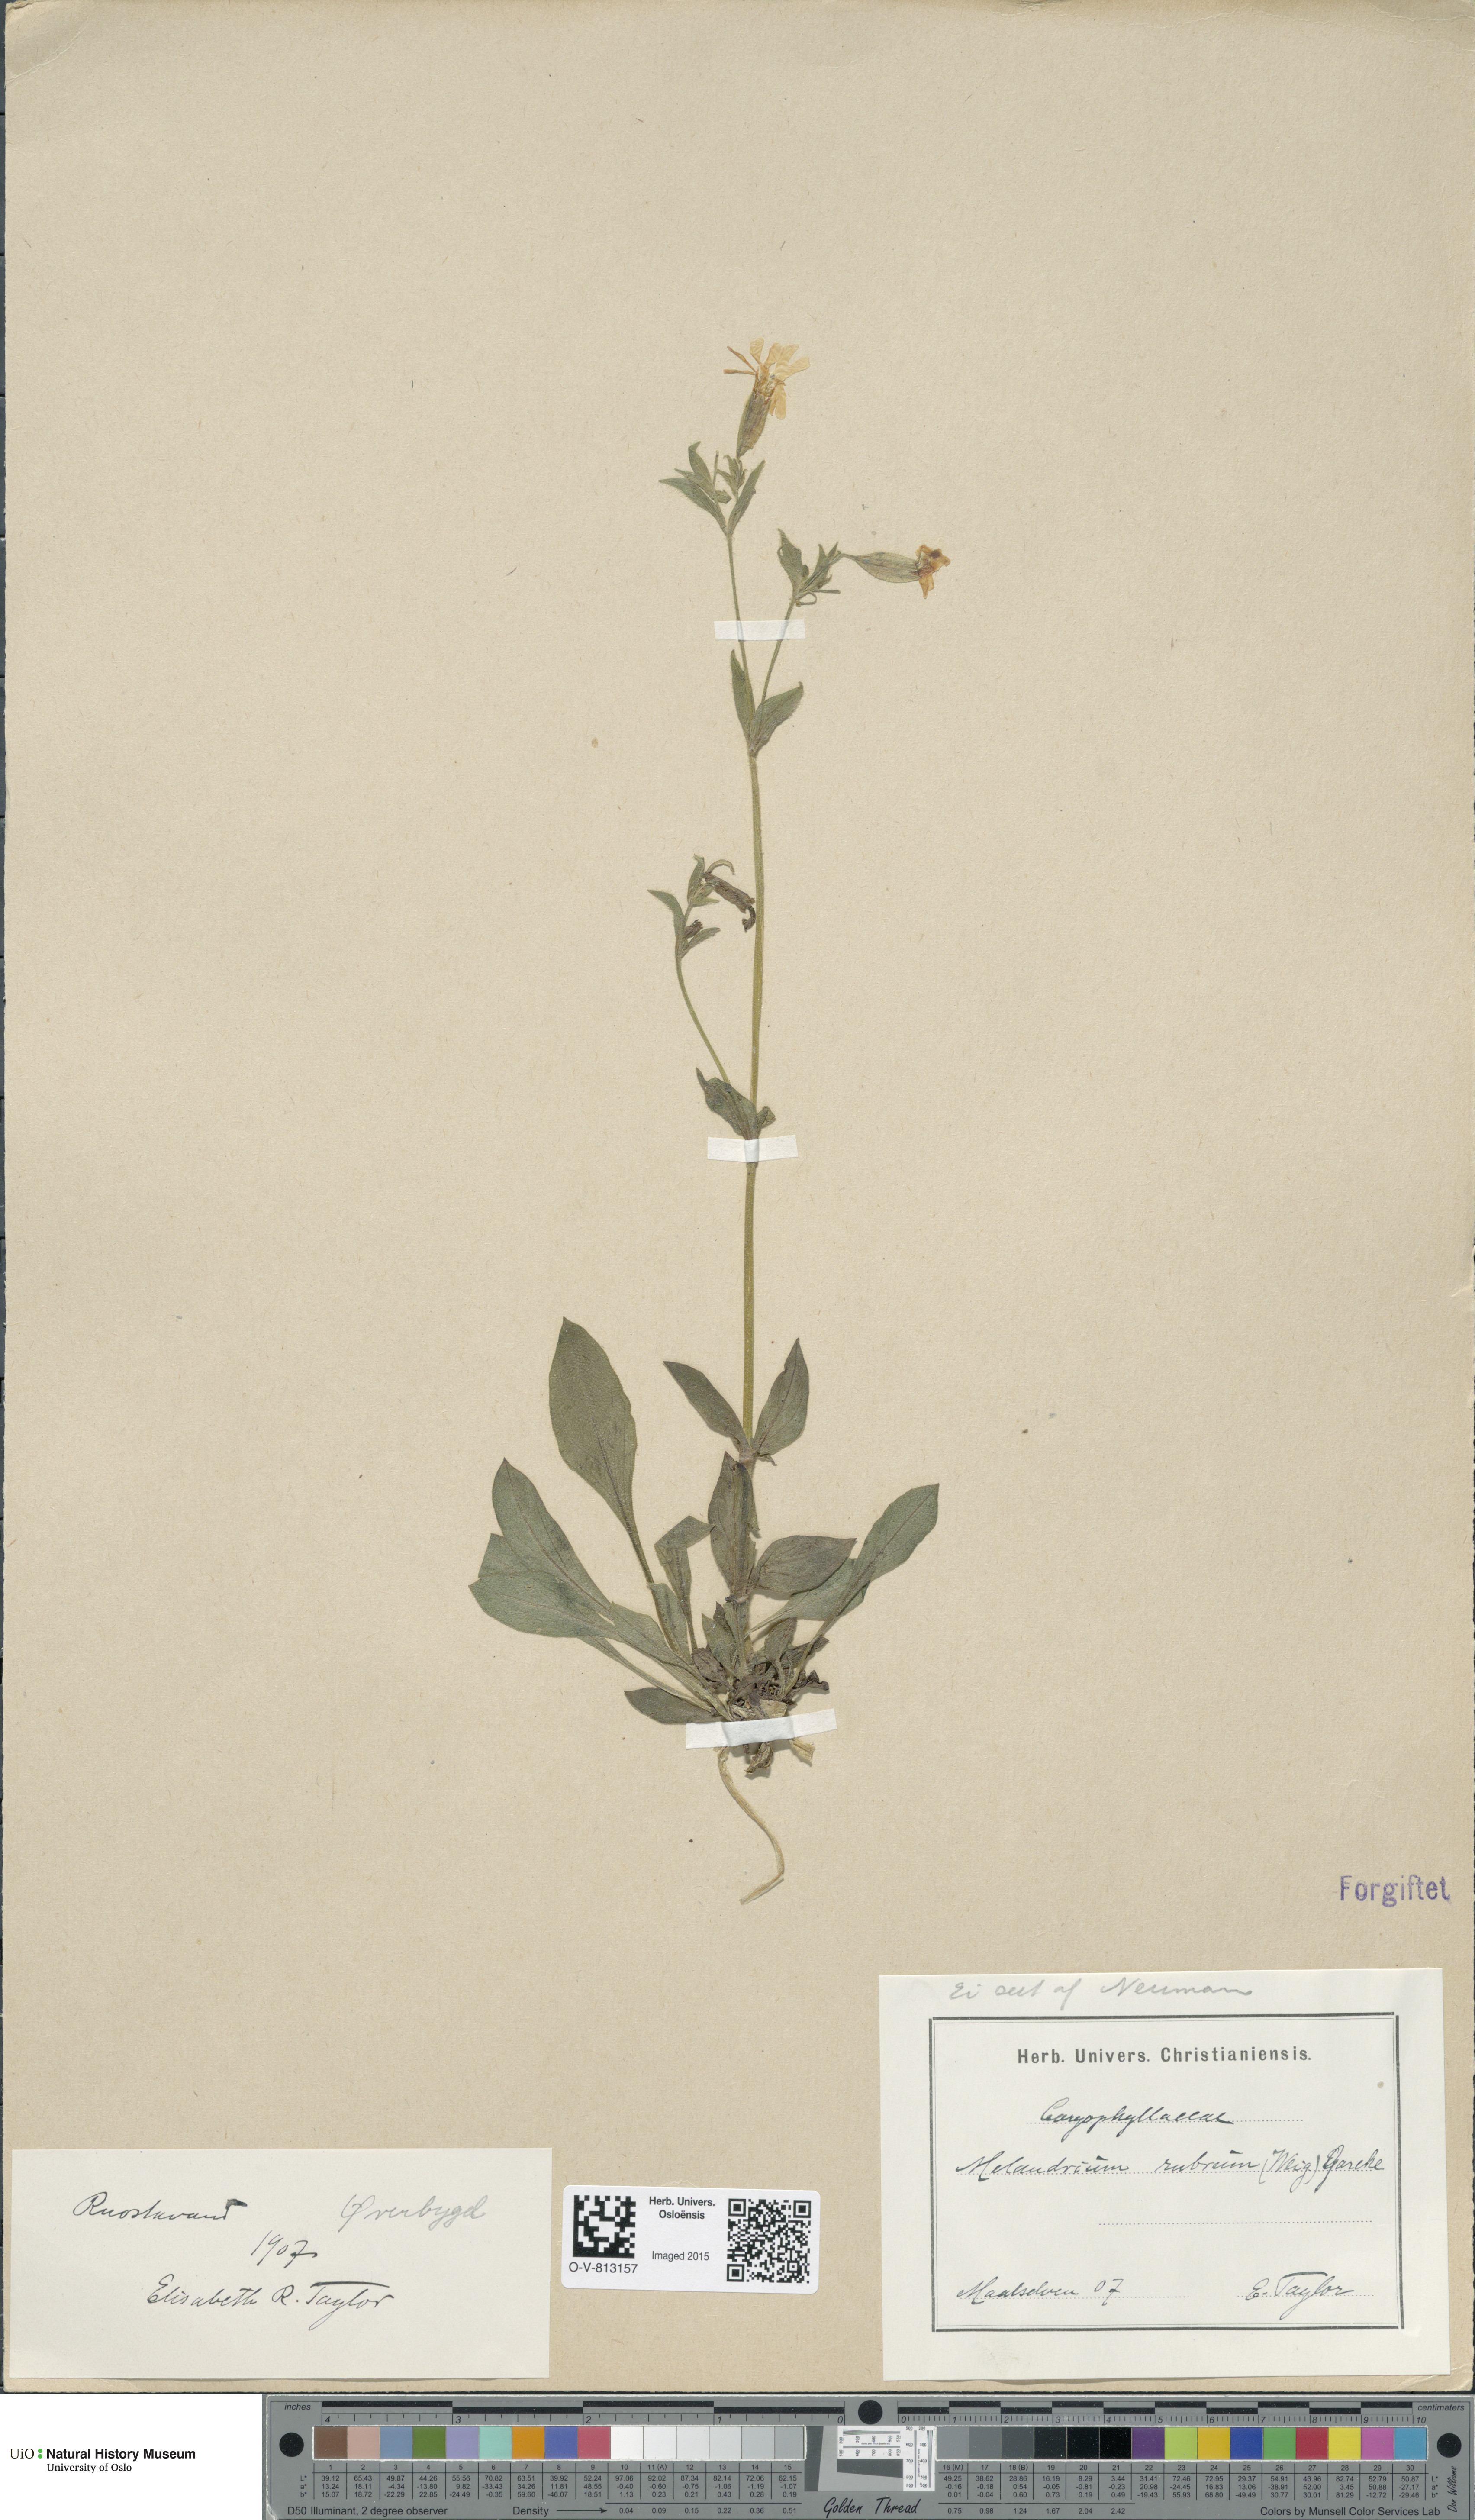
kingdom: Plantae
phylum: Tracheophyta
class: Magnoliopsida
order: Caryophyllales
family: Caryophyllaceae
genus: Silene
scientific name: Silene dioica
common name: Red campion
